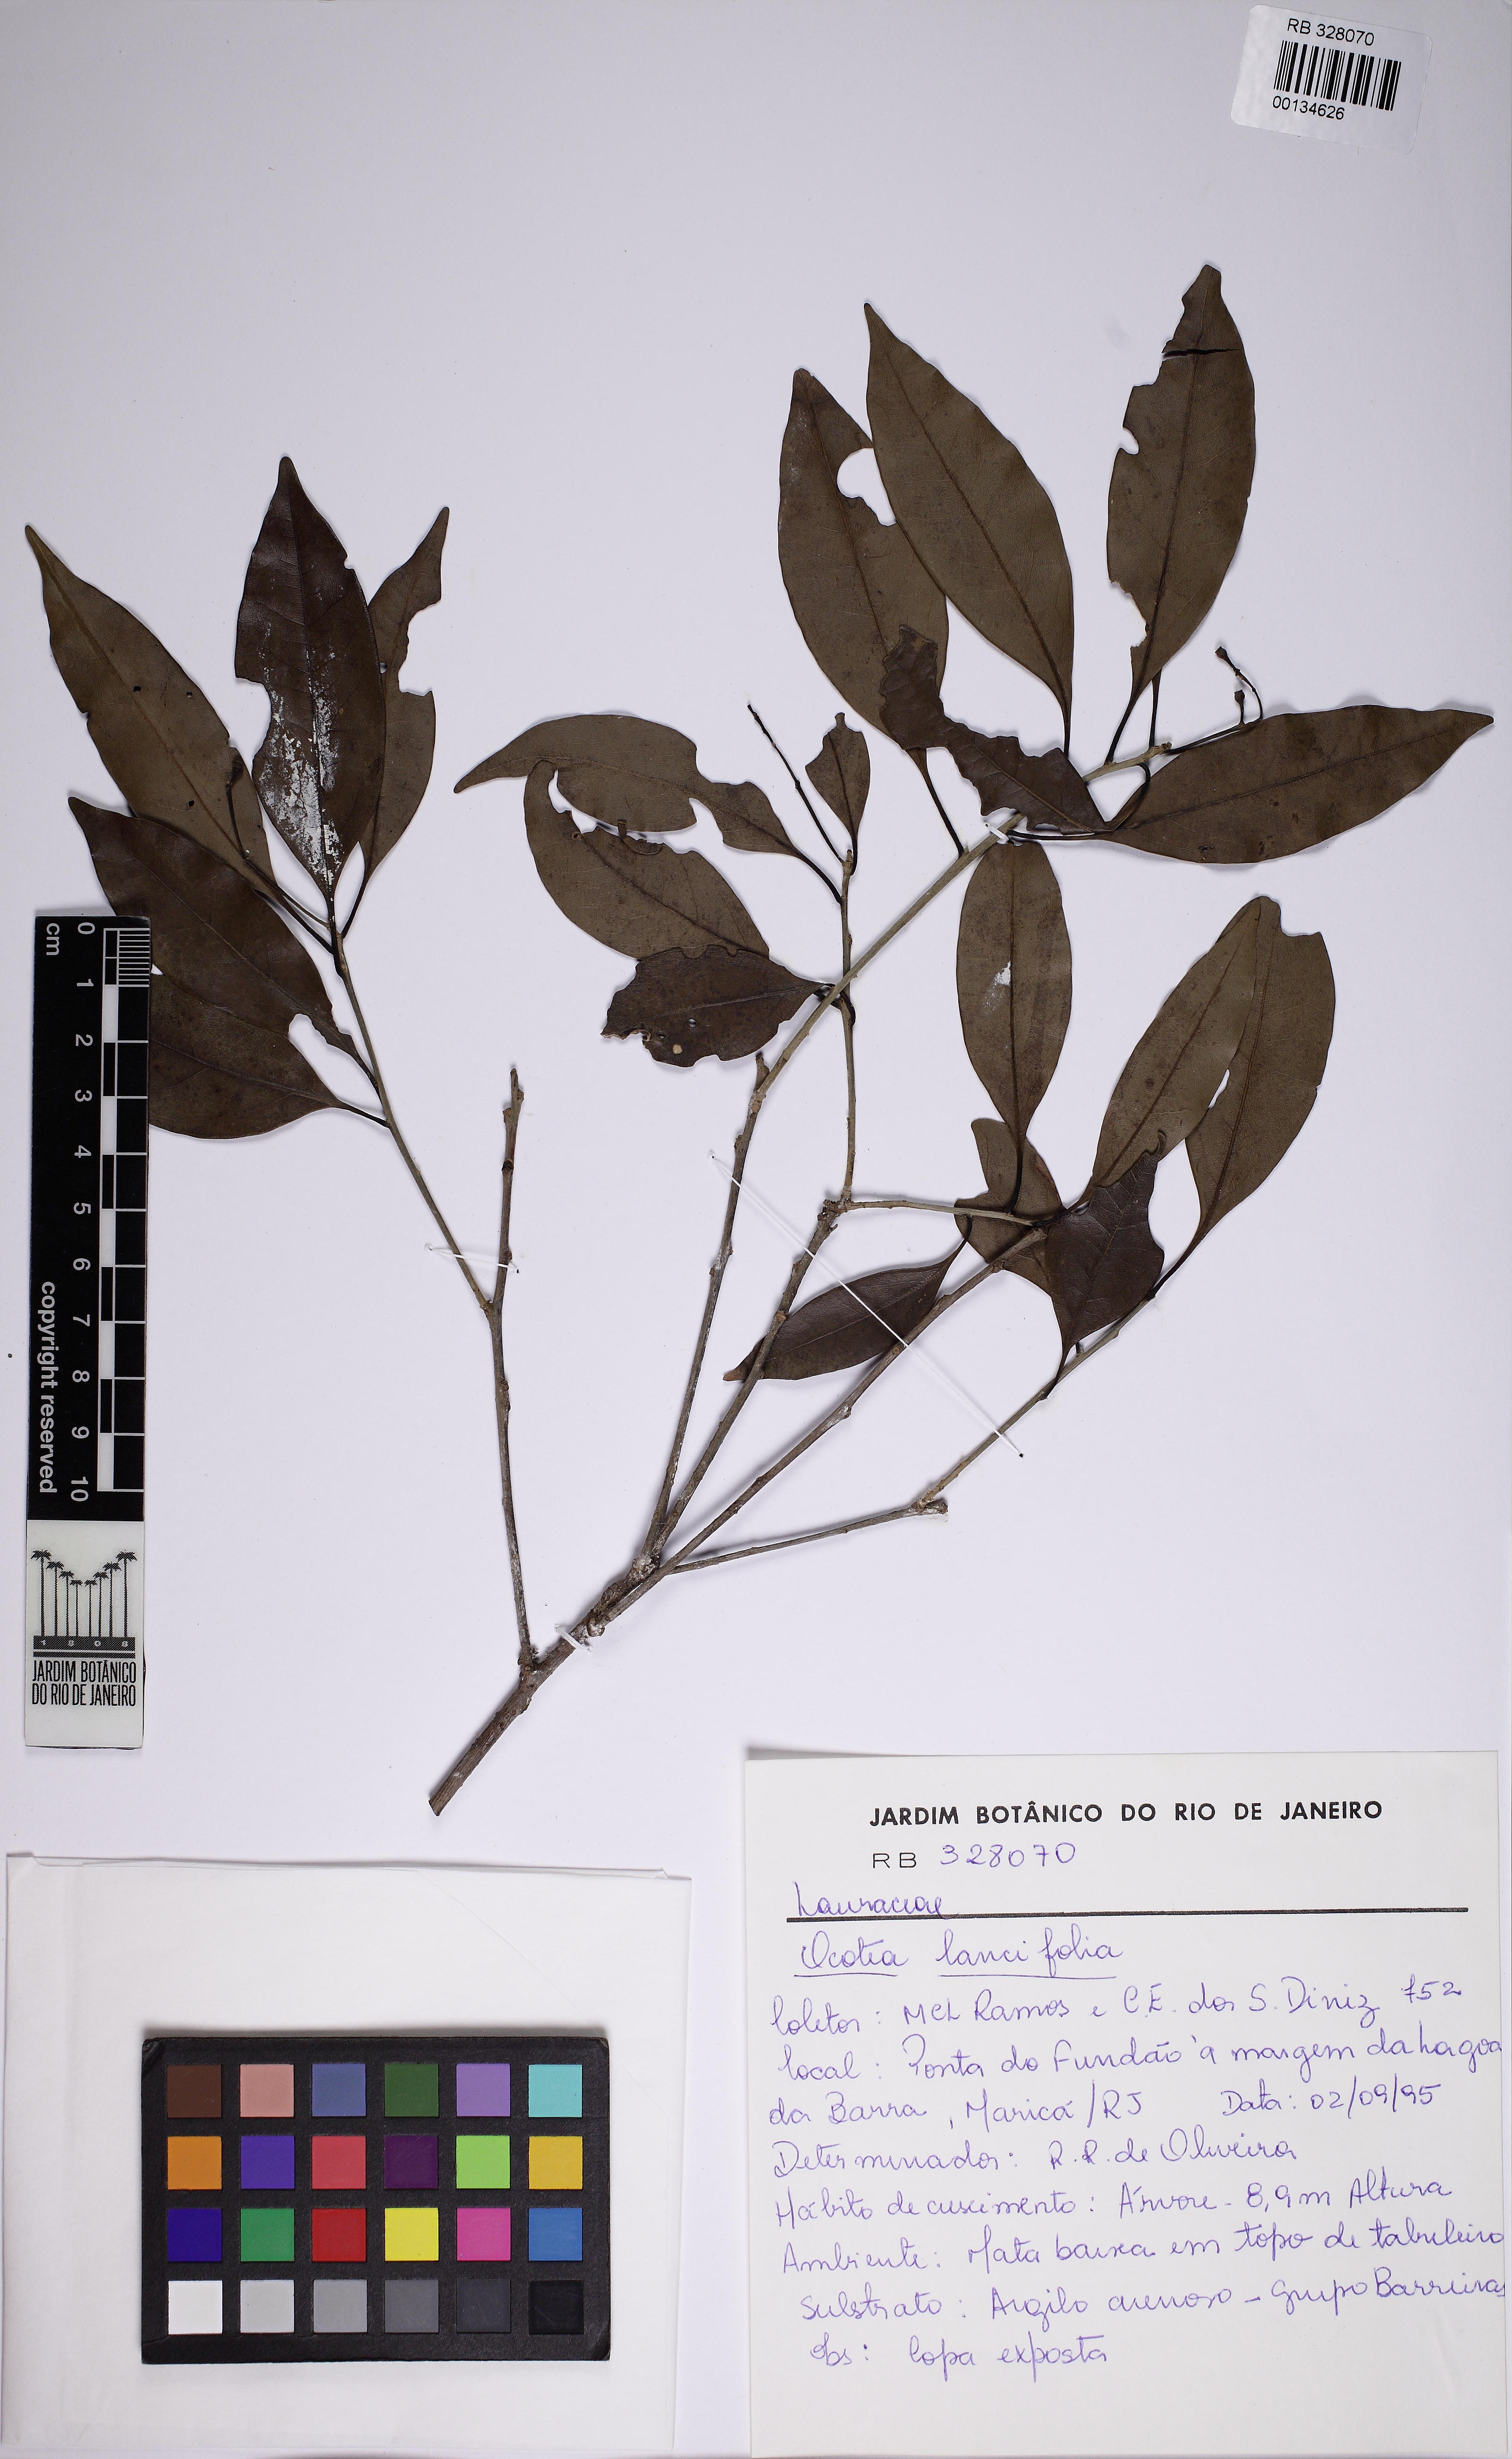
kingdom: Plantae
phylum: Tracheophyta
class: Magnoliopsida
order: Laurales
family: Lauraceae
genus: Ocotea
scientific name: Ocotea lancifolia
